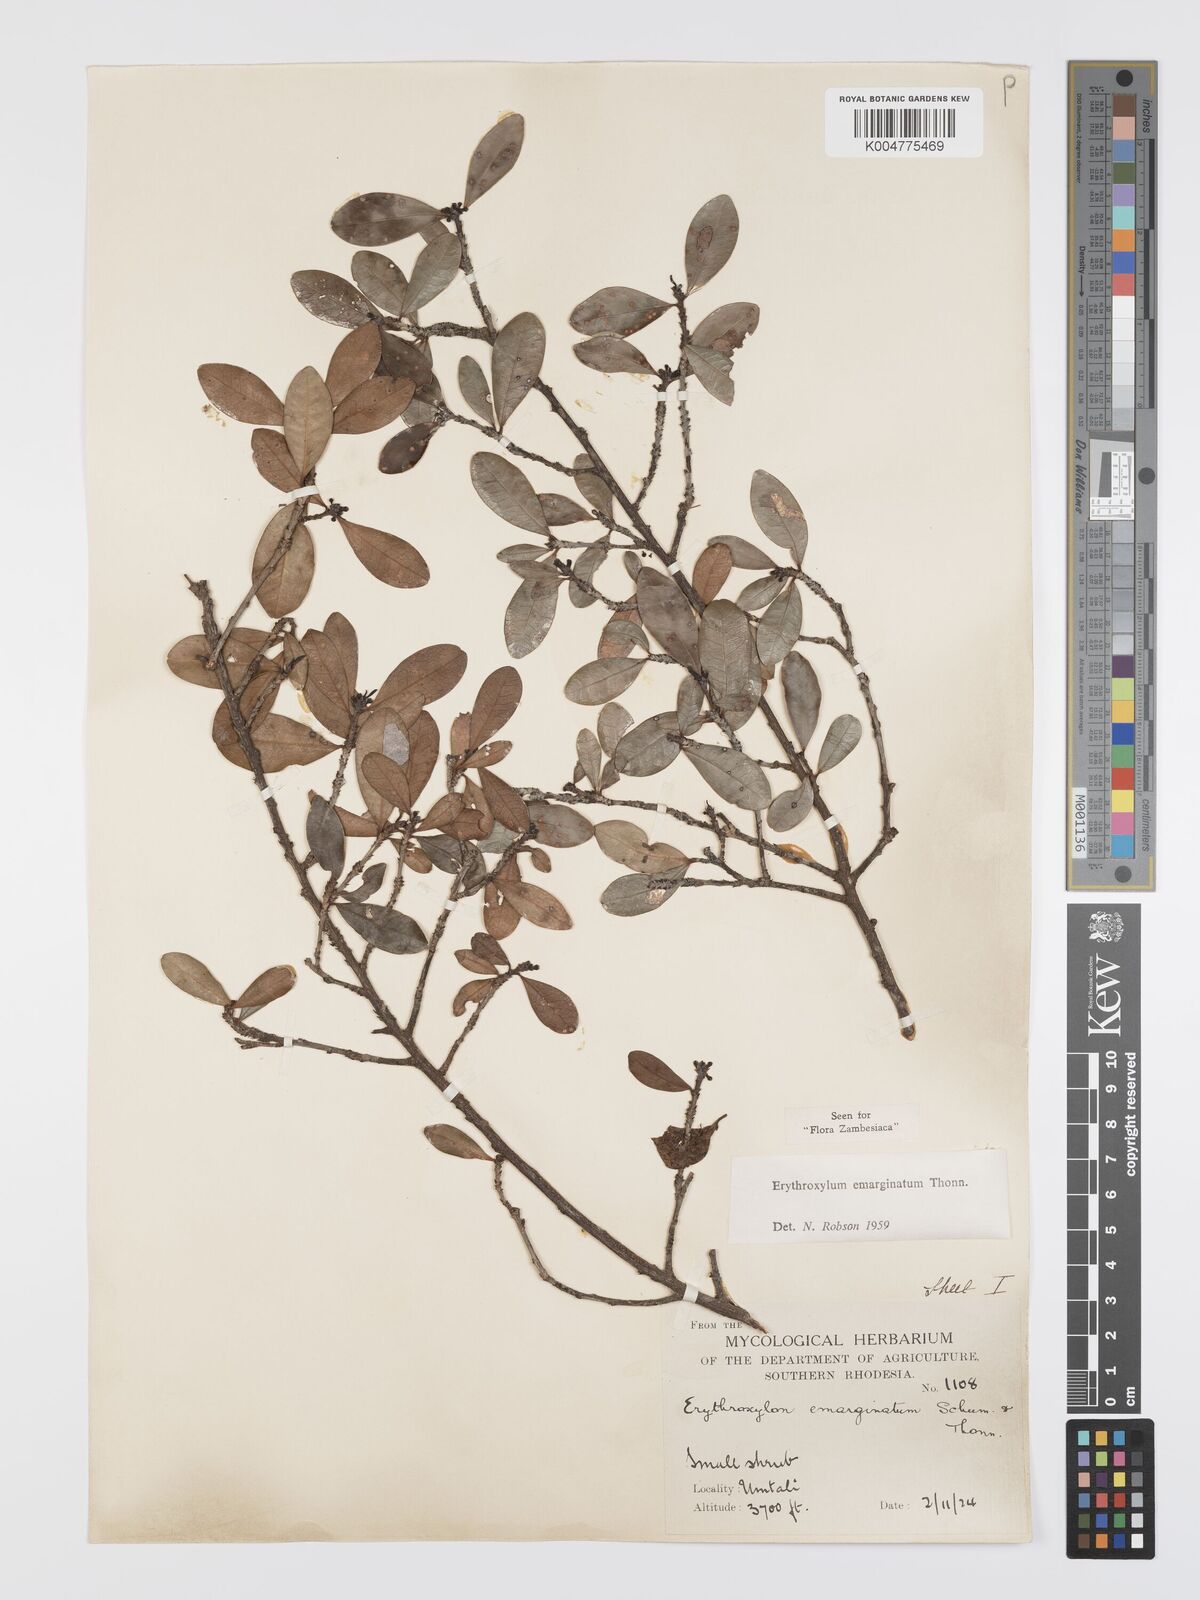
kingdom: Plantae
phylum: Tracheophyta
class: Magnoliopsida
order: Malpighiales
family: Erythroxylaceae
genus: Erythroxylum
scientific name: Erythroxylum emarginatum
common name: African coca-tree
